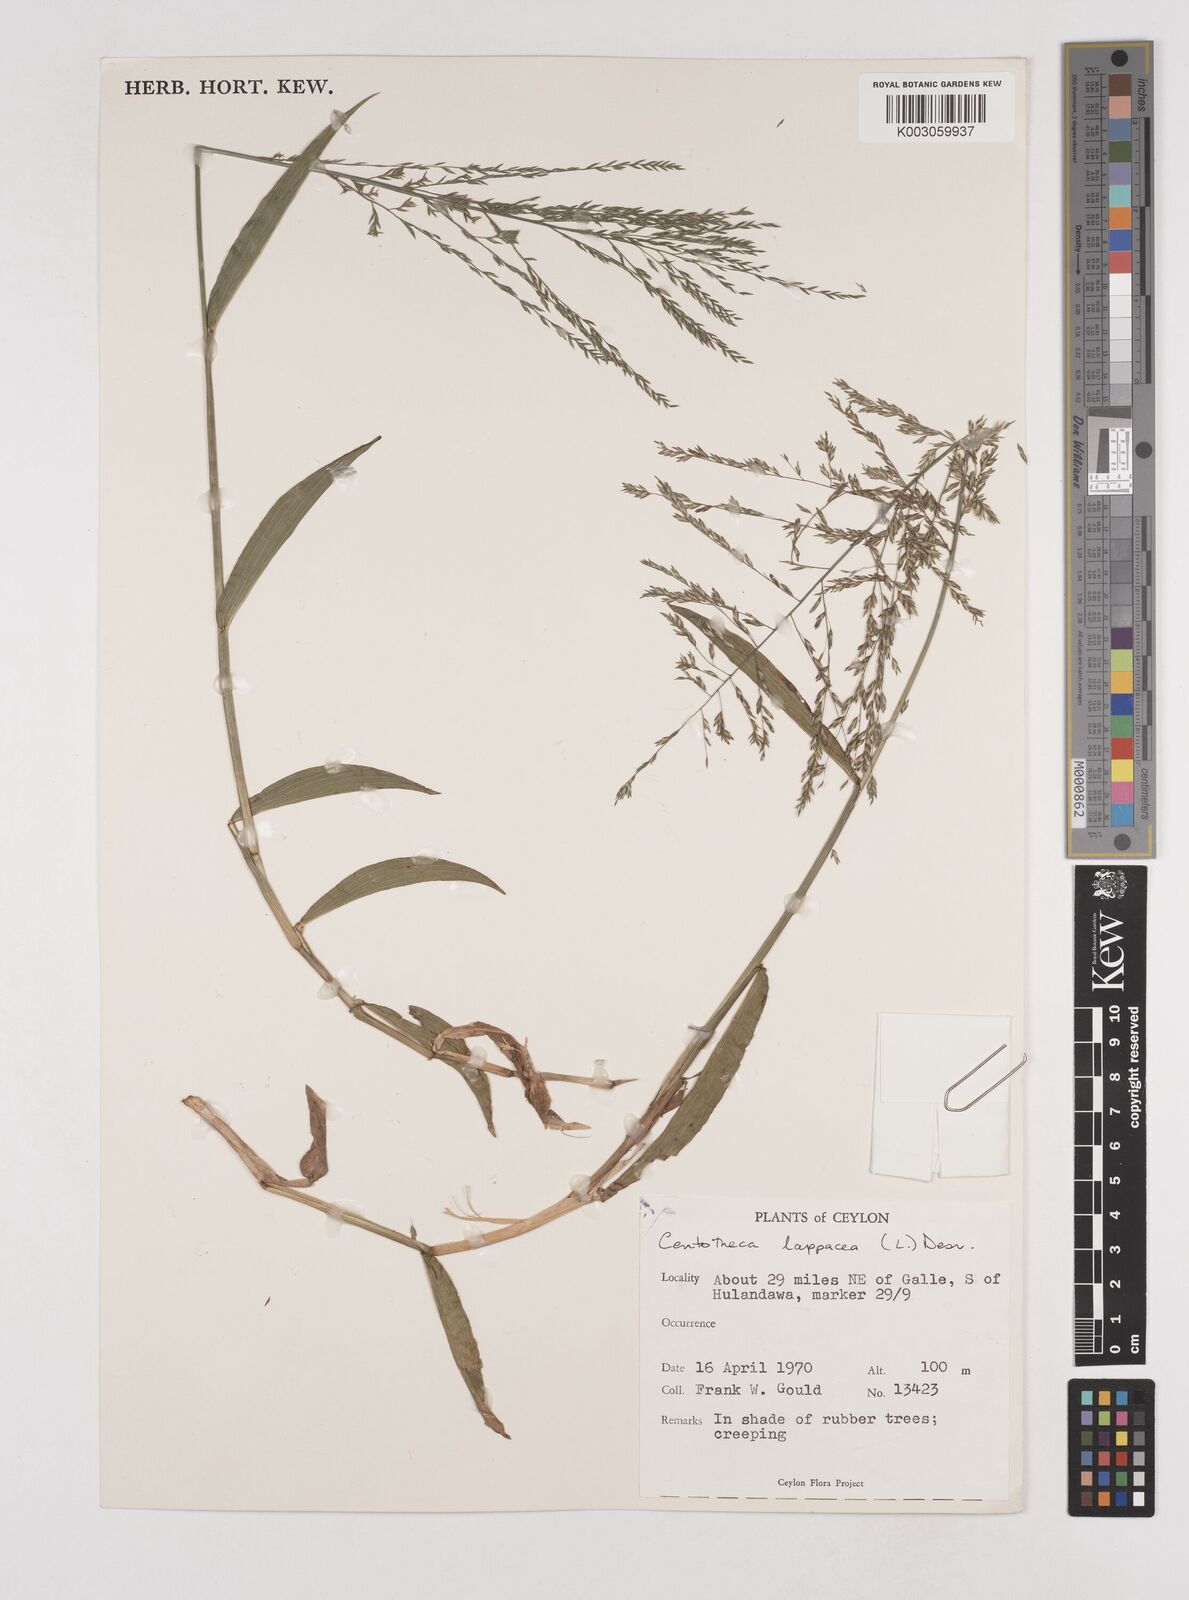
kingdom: Plantae
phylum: Tracheophyta
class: Liliopsida
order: Poales
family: Poaceae
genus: Centotheca
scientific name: Centotheca lappacea
